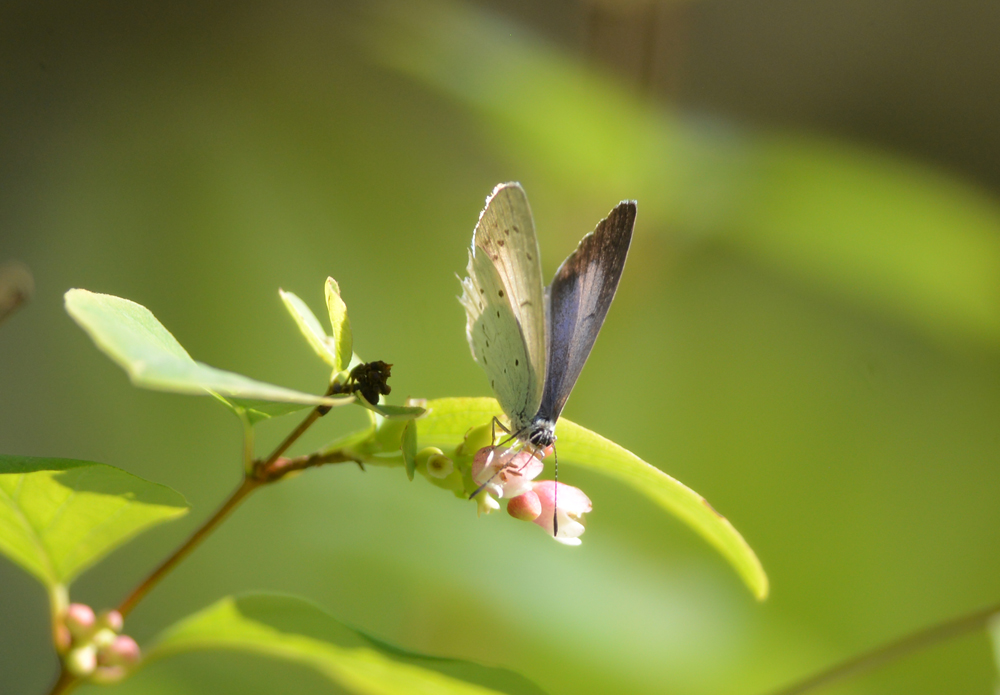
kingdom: Animalia
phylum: Arthropoda
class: Insecta
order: Lepidoptera
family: Lycaenidae
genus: Celastrina
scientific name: Celastrina argiolus
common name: Holly blue
